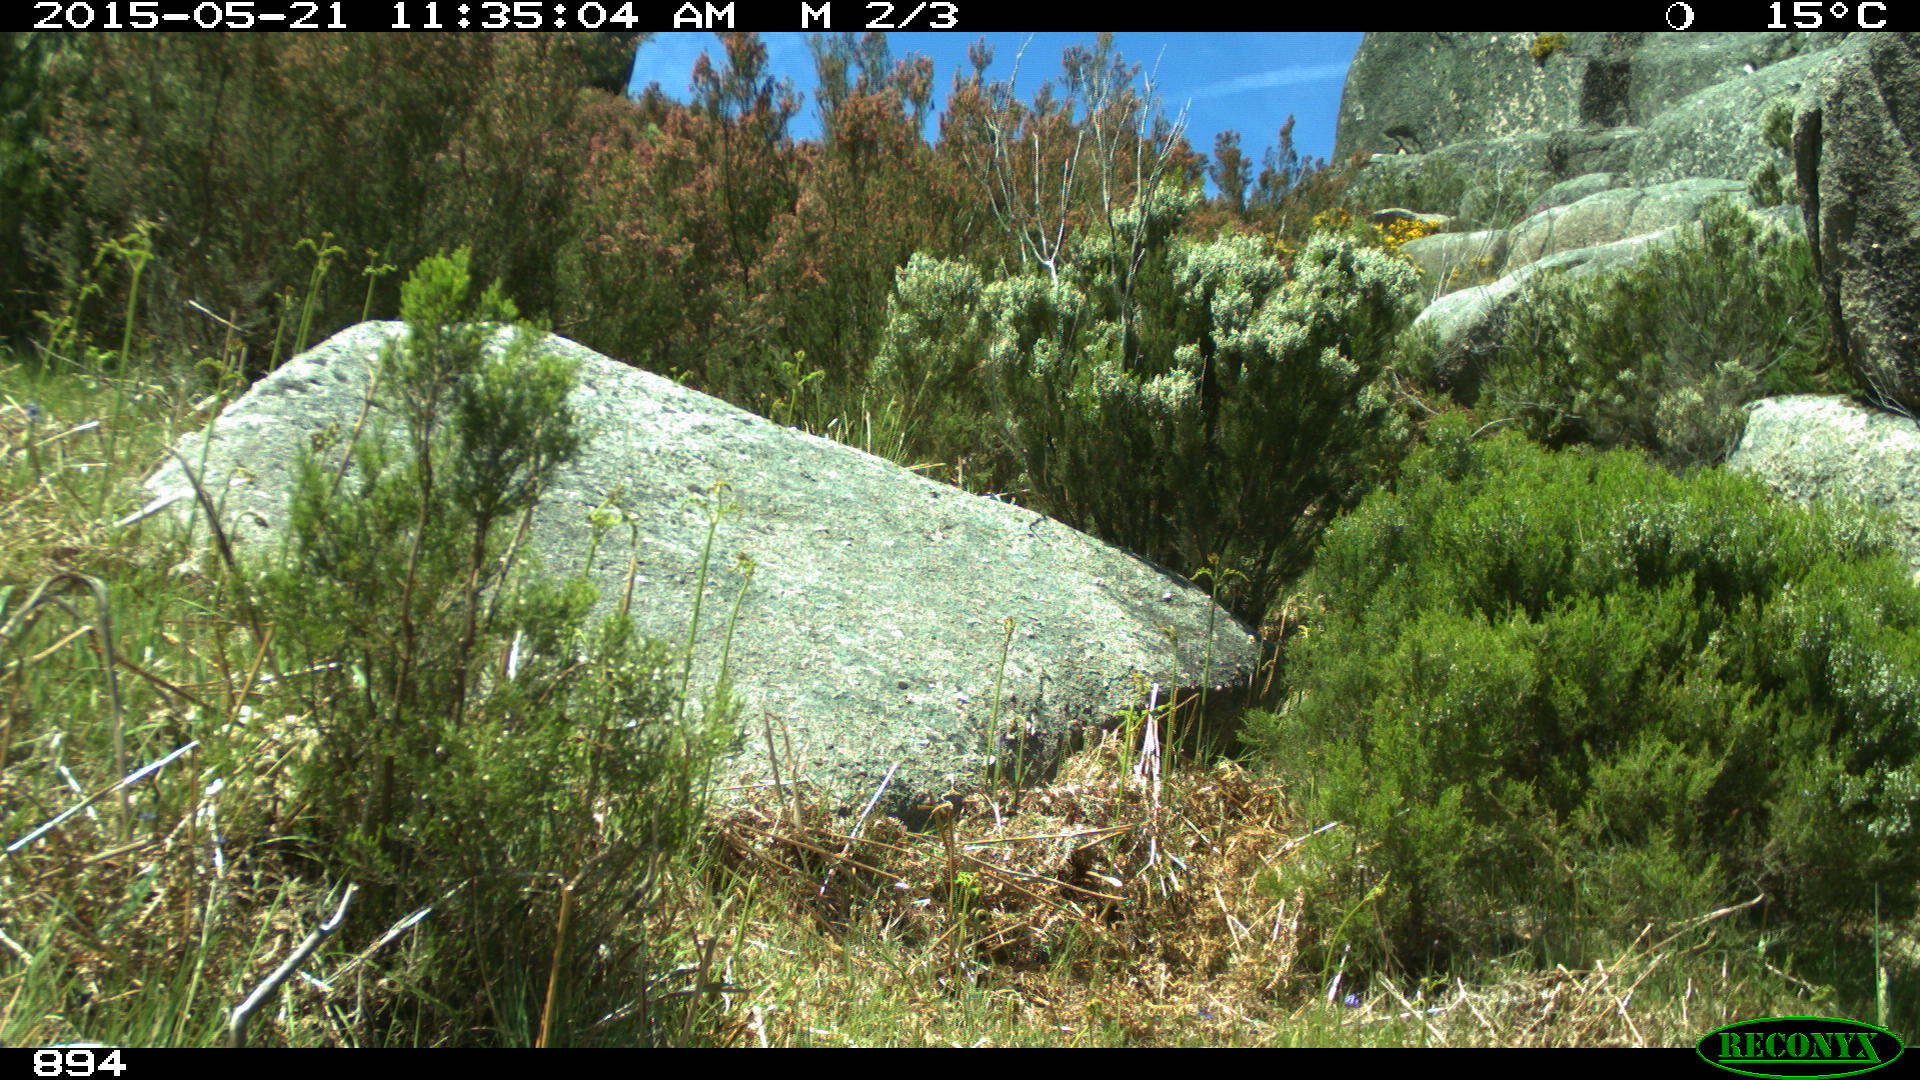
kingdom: Animalia
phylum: Chordata
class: Mammalia
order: Perissodactyla
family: Equidae
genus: Equus
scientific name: Equus caballus
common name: Horse
